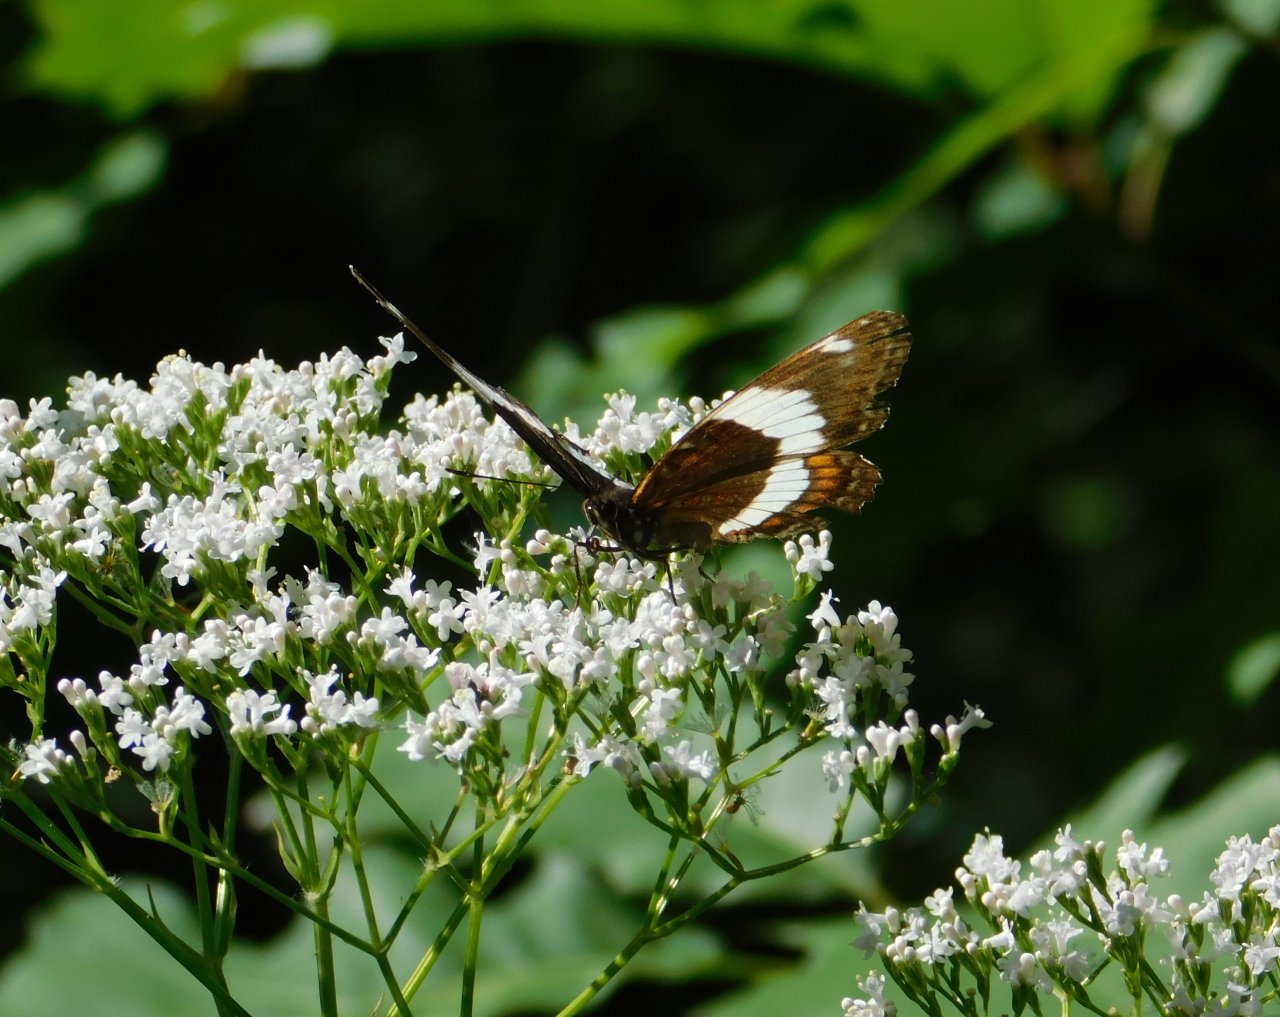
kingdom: Animalia
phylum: Arthropoda
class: Insecta
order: Lepidoptera
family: Nymphalidae
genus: Limenitis
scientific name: Limenitis arthemis
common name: Red-spotted Admiral
